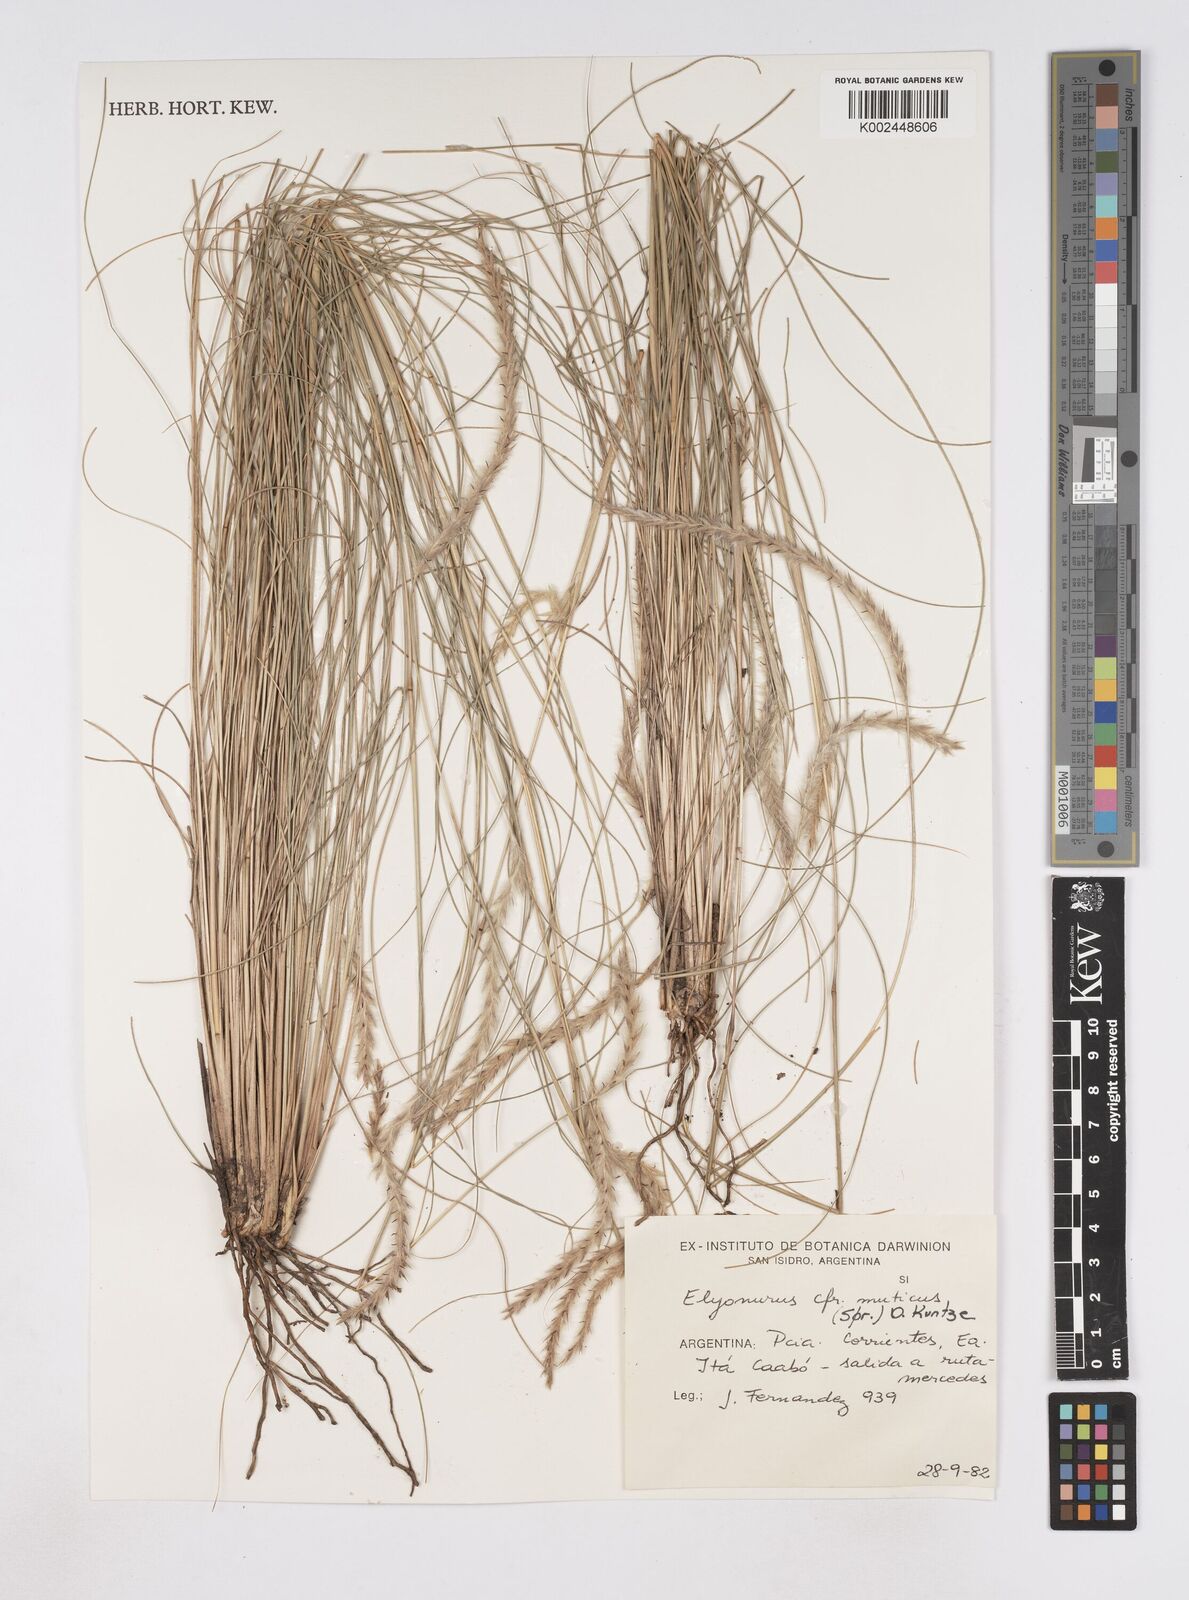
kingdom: Plantae
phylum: Tracheophyta
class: Liliopsida
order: Poales
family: Poaceae
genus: Elionurus
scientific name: Elionurus muticus
